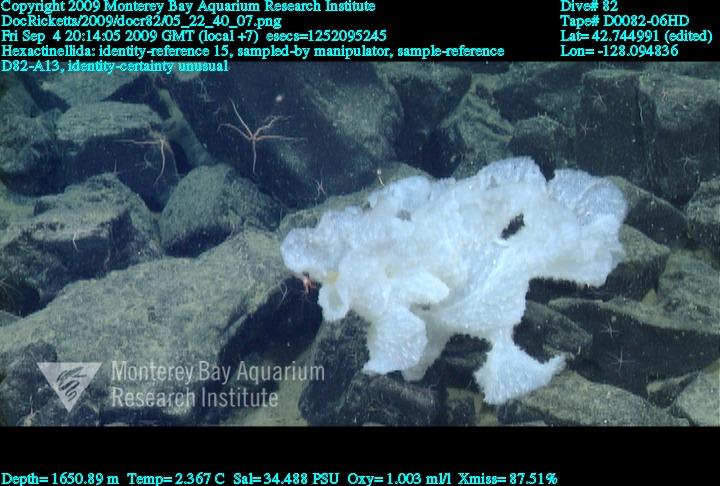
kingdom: Animalia
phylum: Porifera
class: Hexactinellida
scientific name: Hexactinellida
